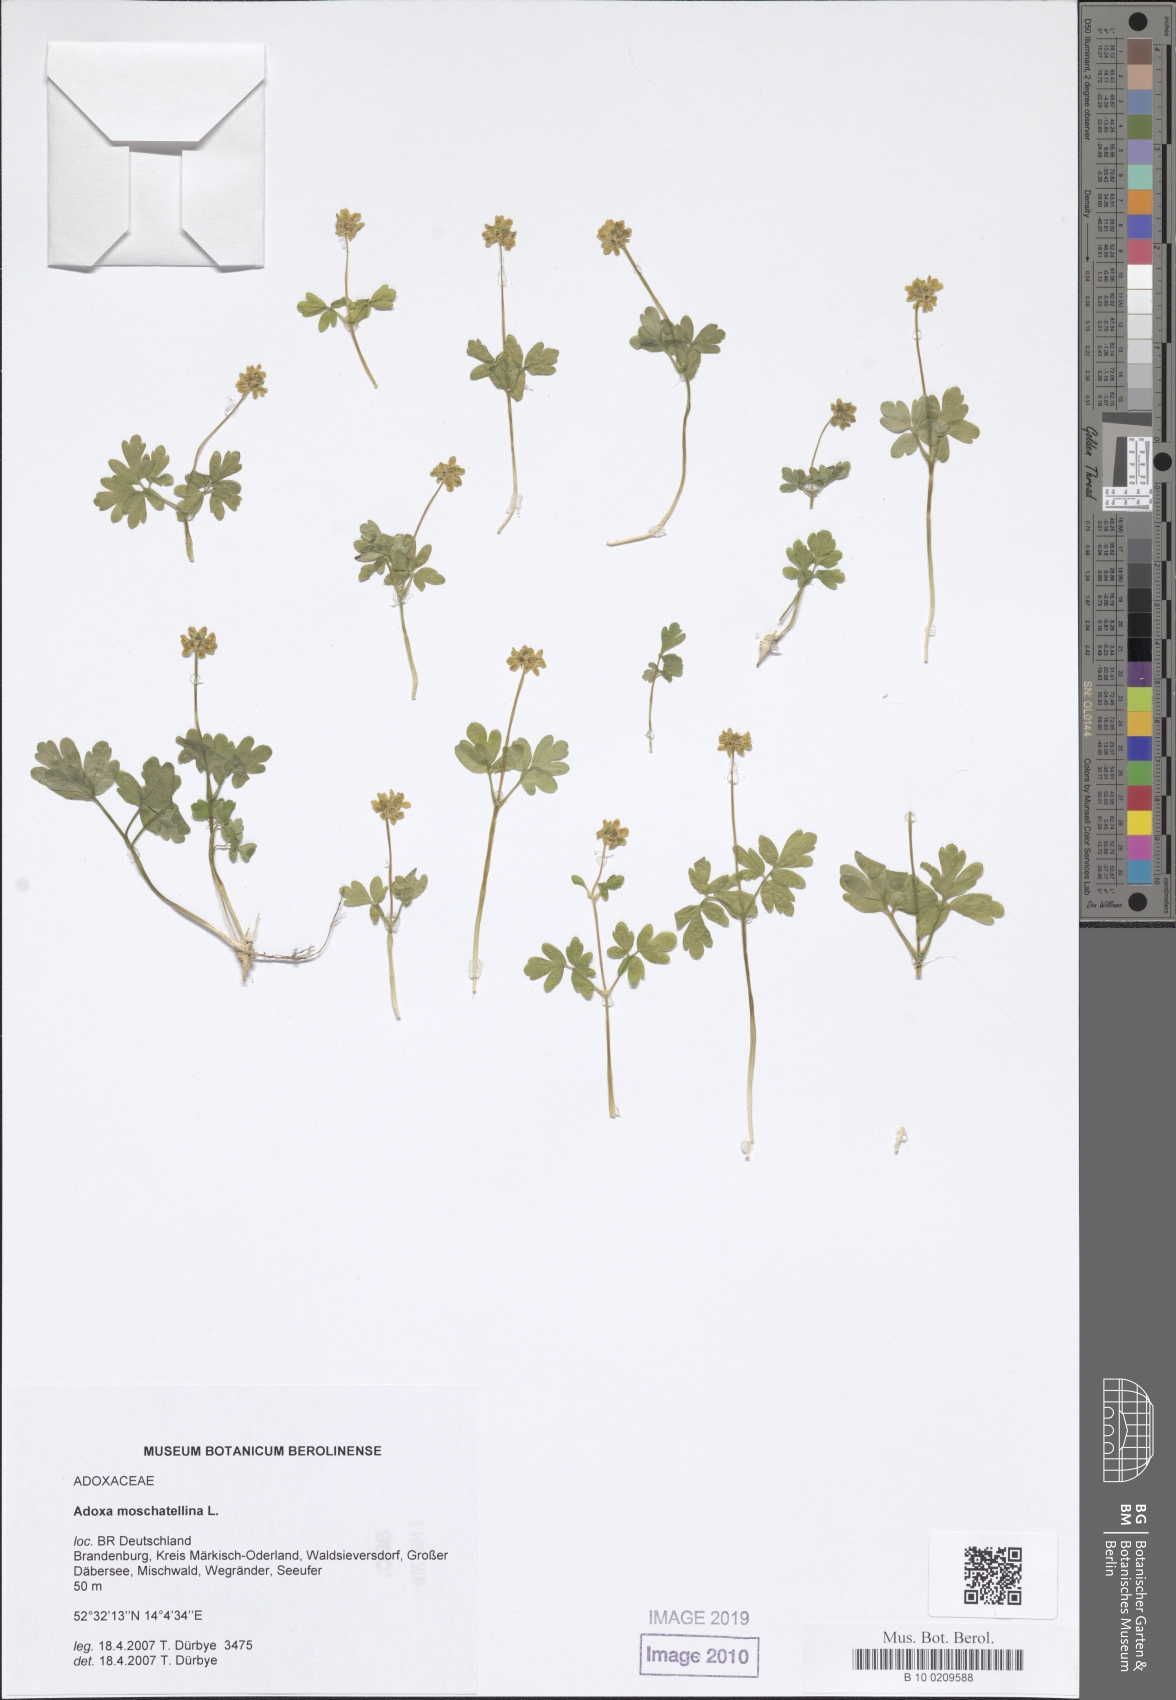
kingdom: Plantae
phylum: Tracheophyta
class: Magnoliopsida
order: Dipsacales
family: Viburnaceae
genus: Adoxa
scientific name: Adoxa moschatellina
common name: Moschatel
